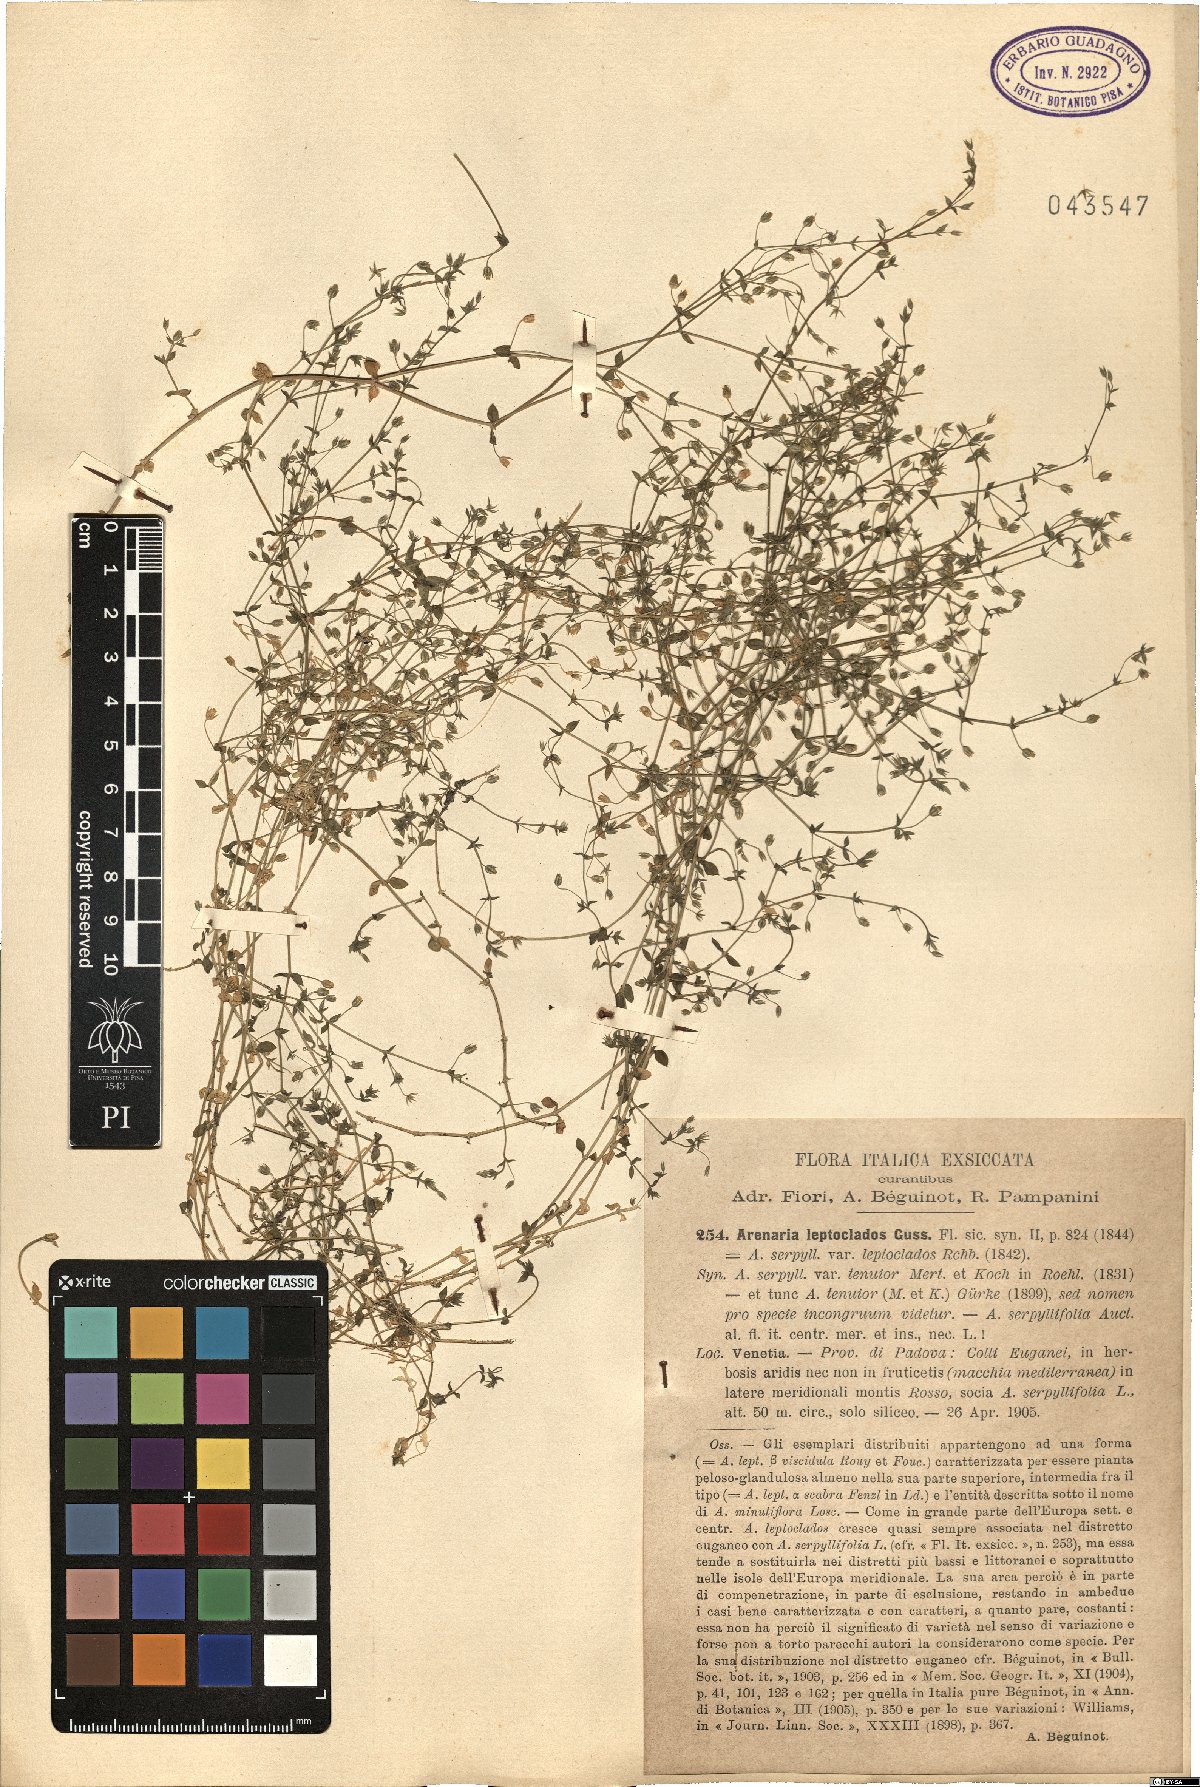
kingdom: Plantae
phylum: Tracheophyta
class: Magnoliopsida
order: Caryophyllales
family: Caryophyllaceae
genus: Arenaria
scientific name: Arenaria leptoclados
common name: Thyme-leaved sandwort
